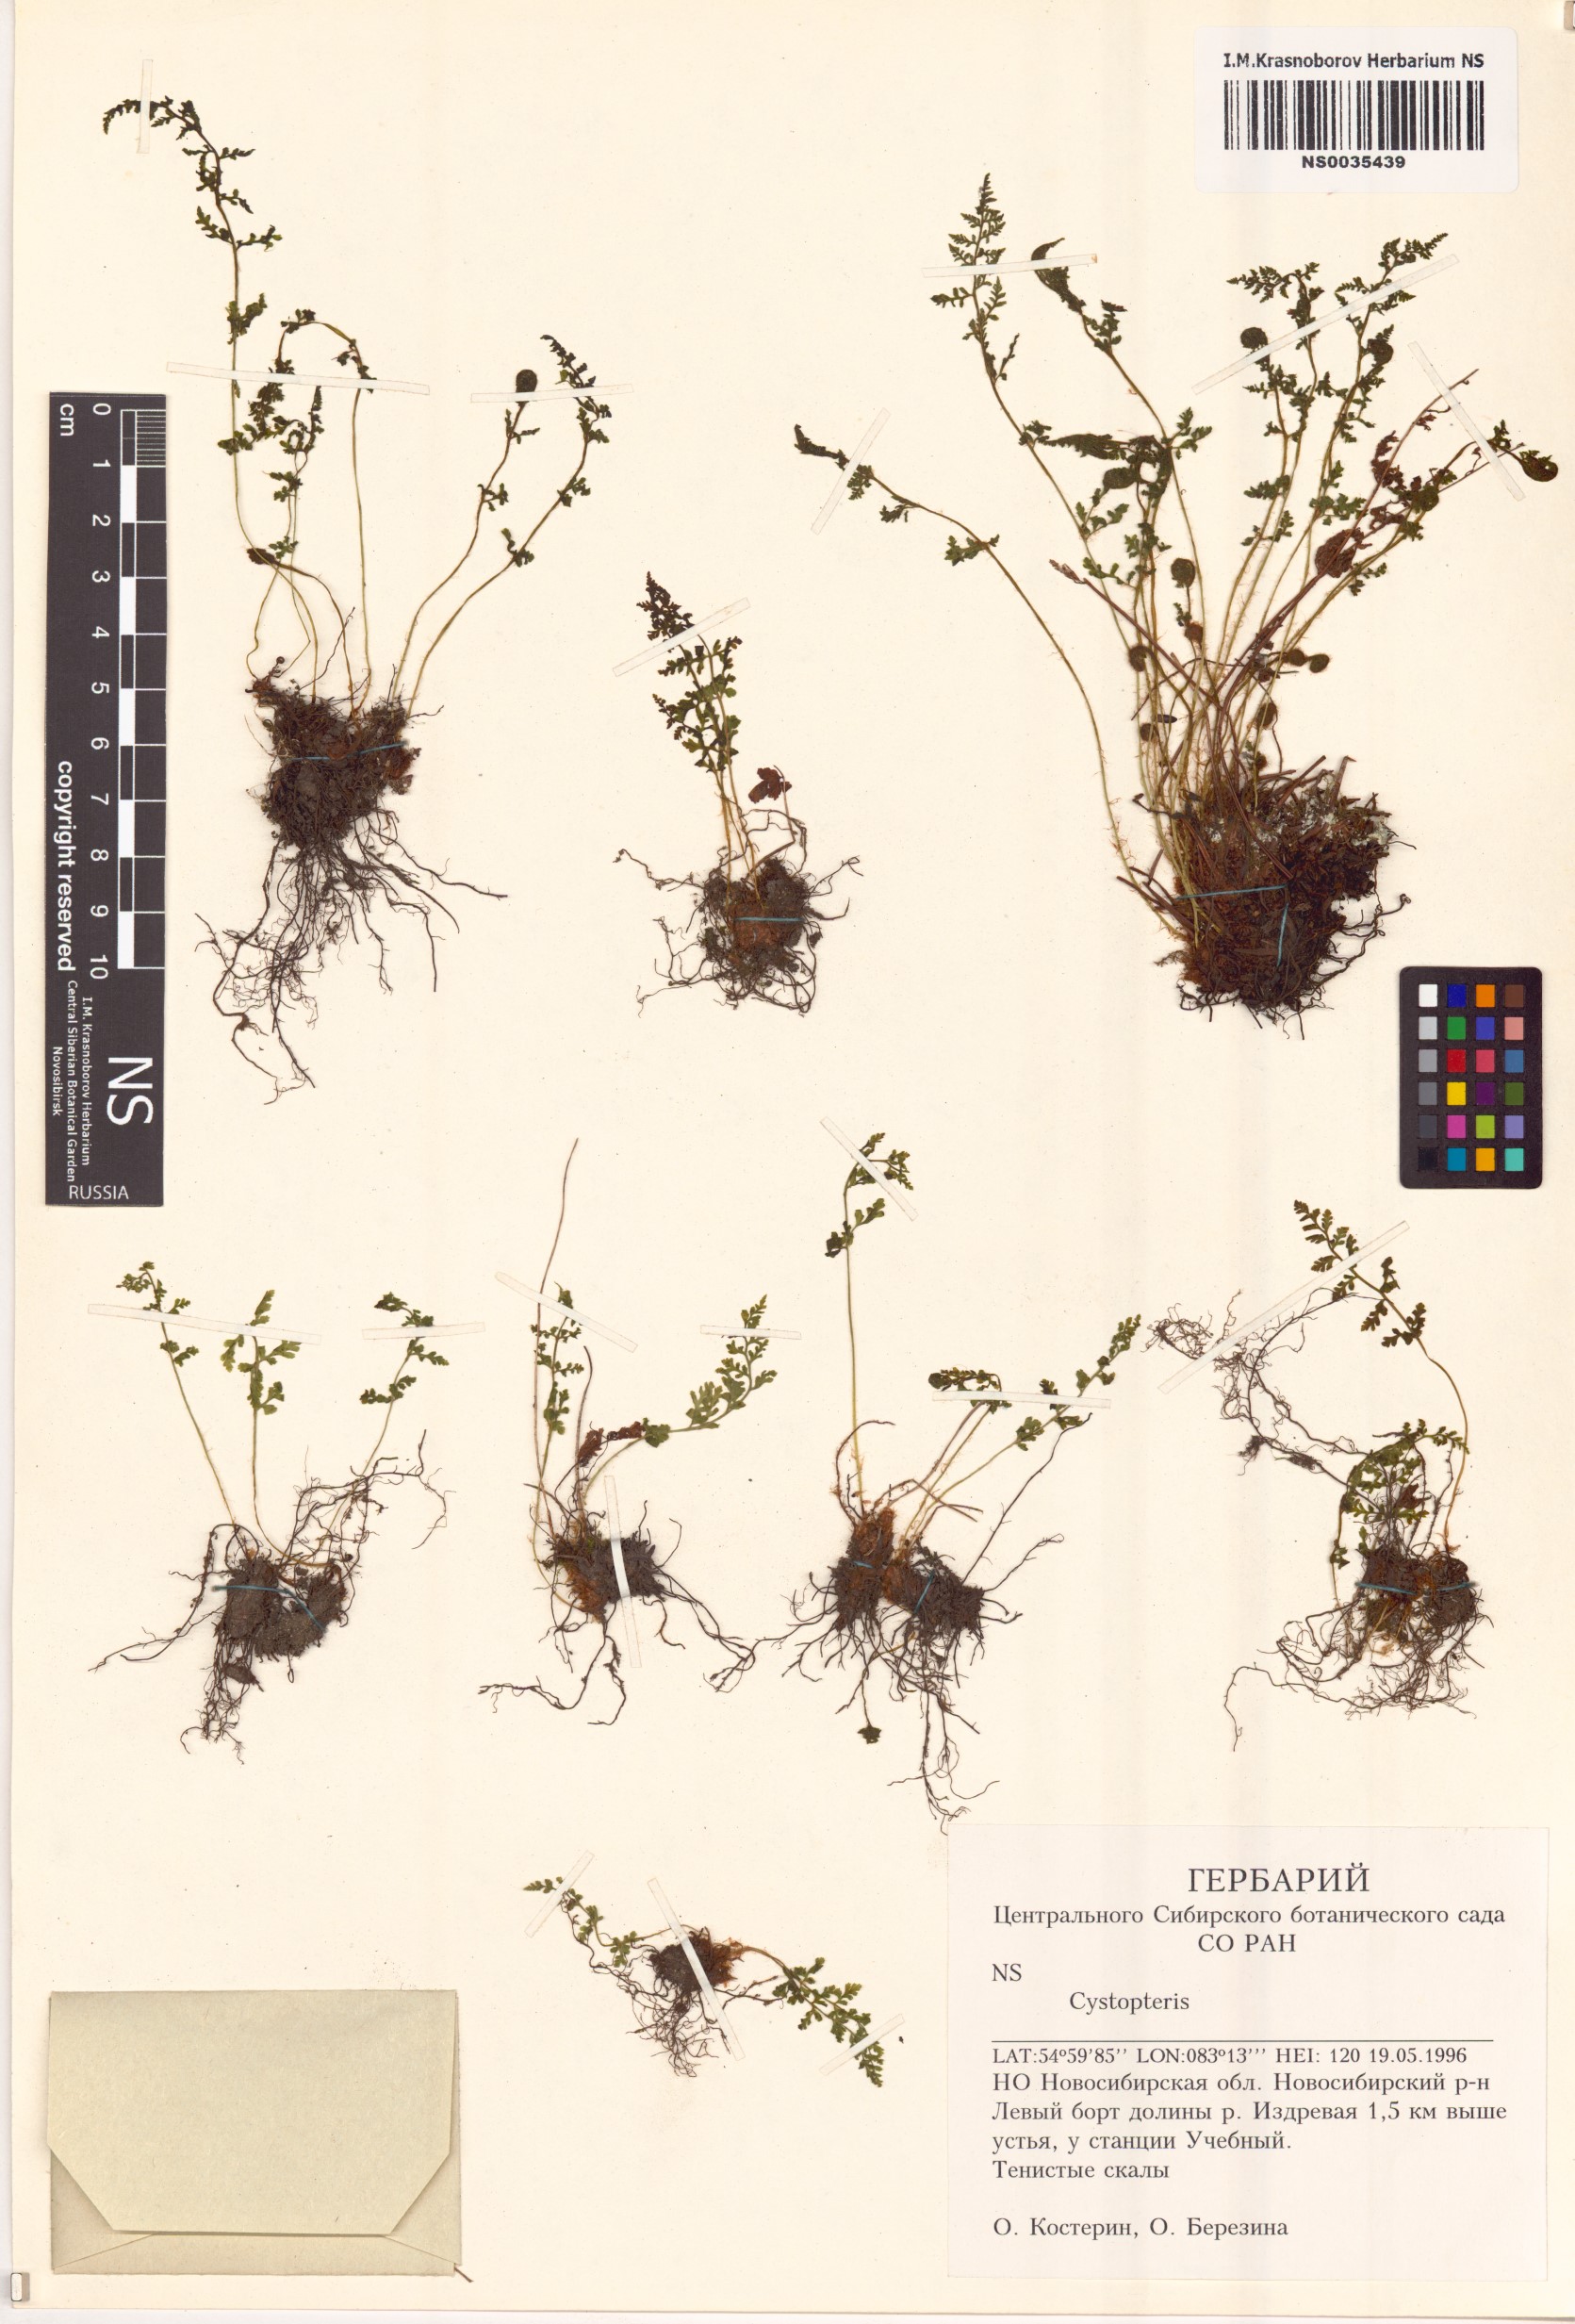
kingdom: Plantae
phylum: Tracheophyta
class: Polypodiopsida
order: Polypodiales
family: Cystopteridaceae
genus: Cystopteris
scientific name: Cystopteris
